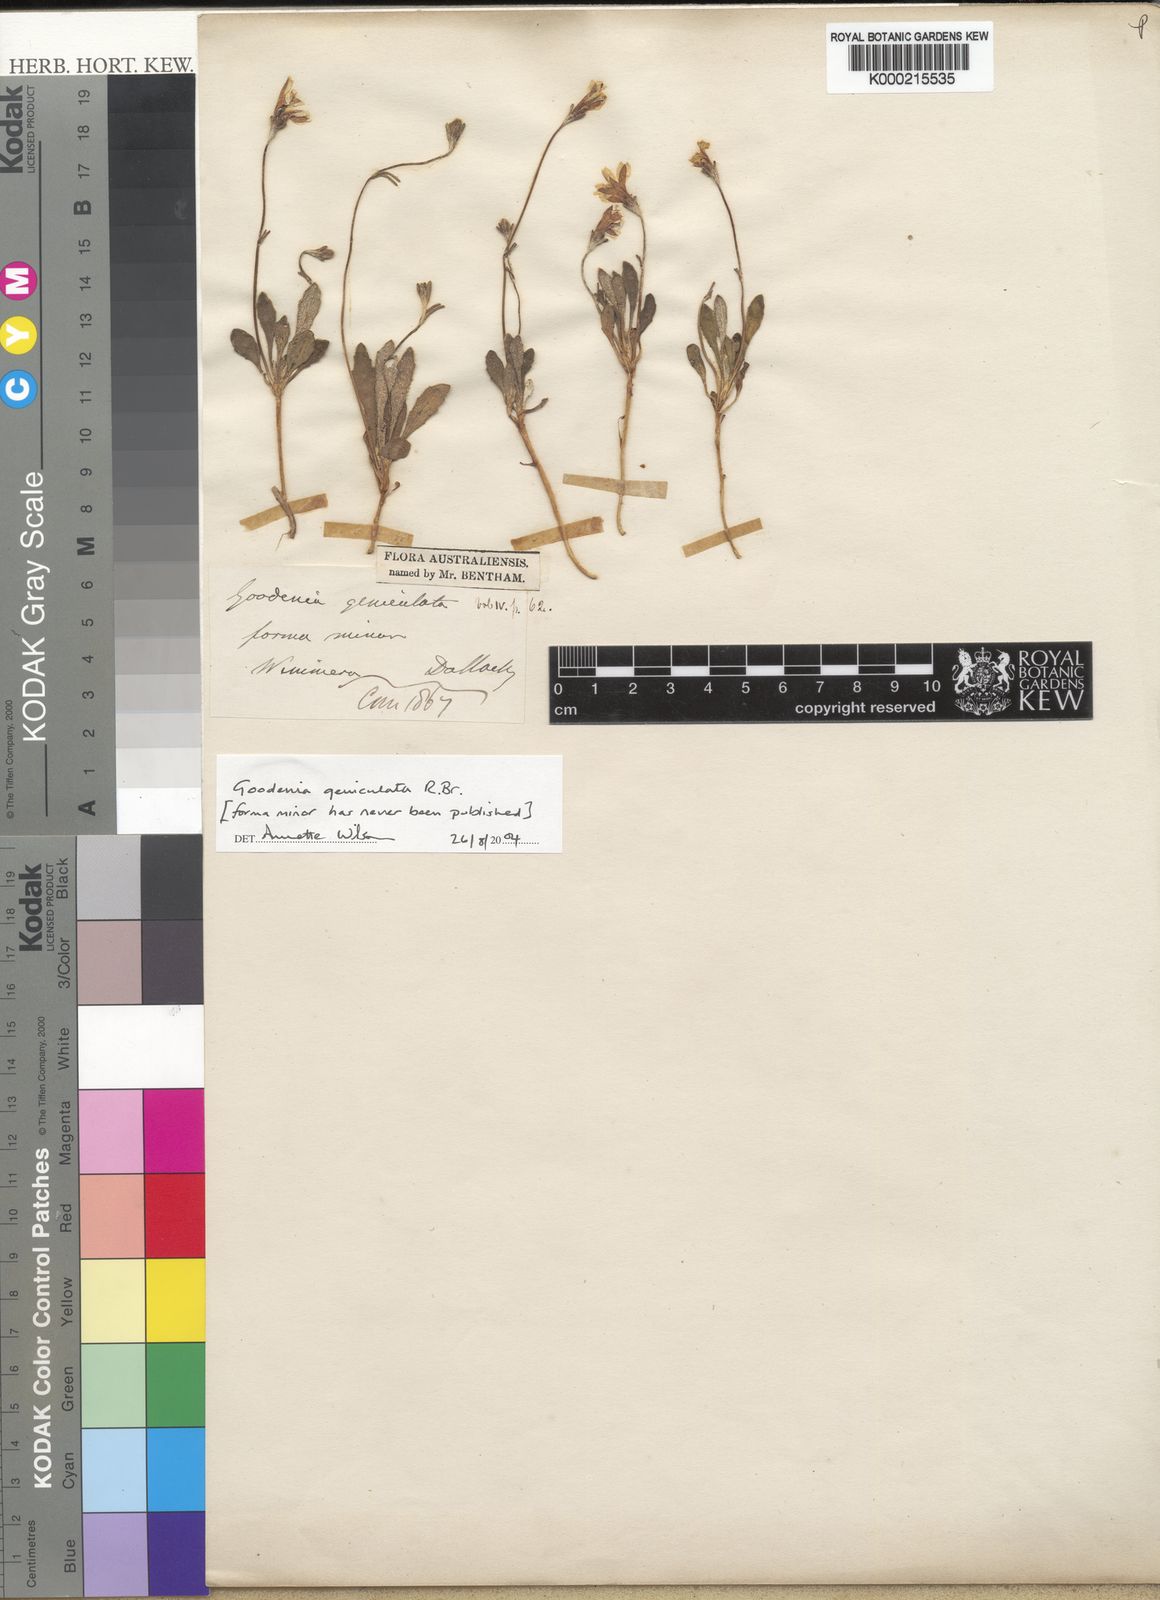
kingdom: Plantae
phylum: Tracheophyta
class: Magnoliopsida
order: Asterales
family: Goodeniaceae
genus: Goodenia
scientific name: Goodenia geniculata
